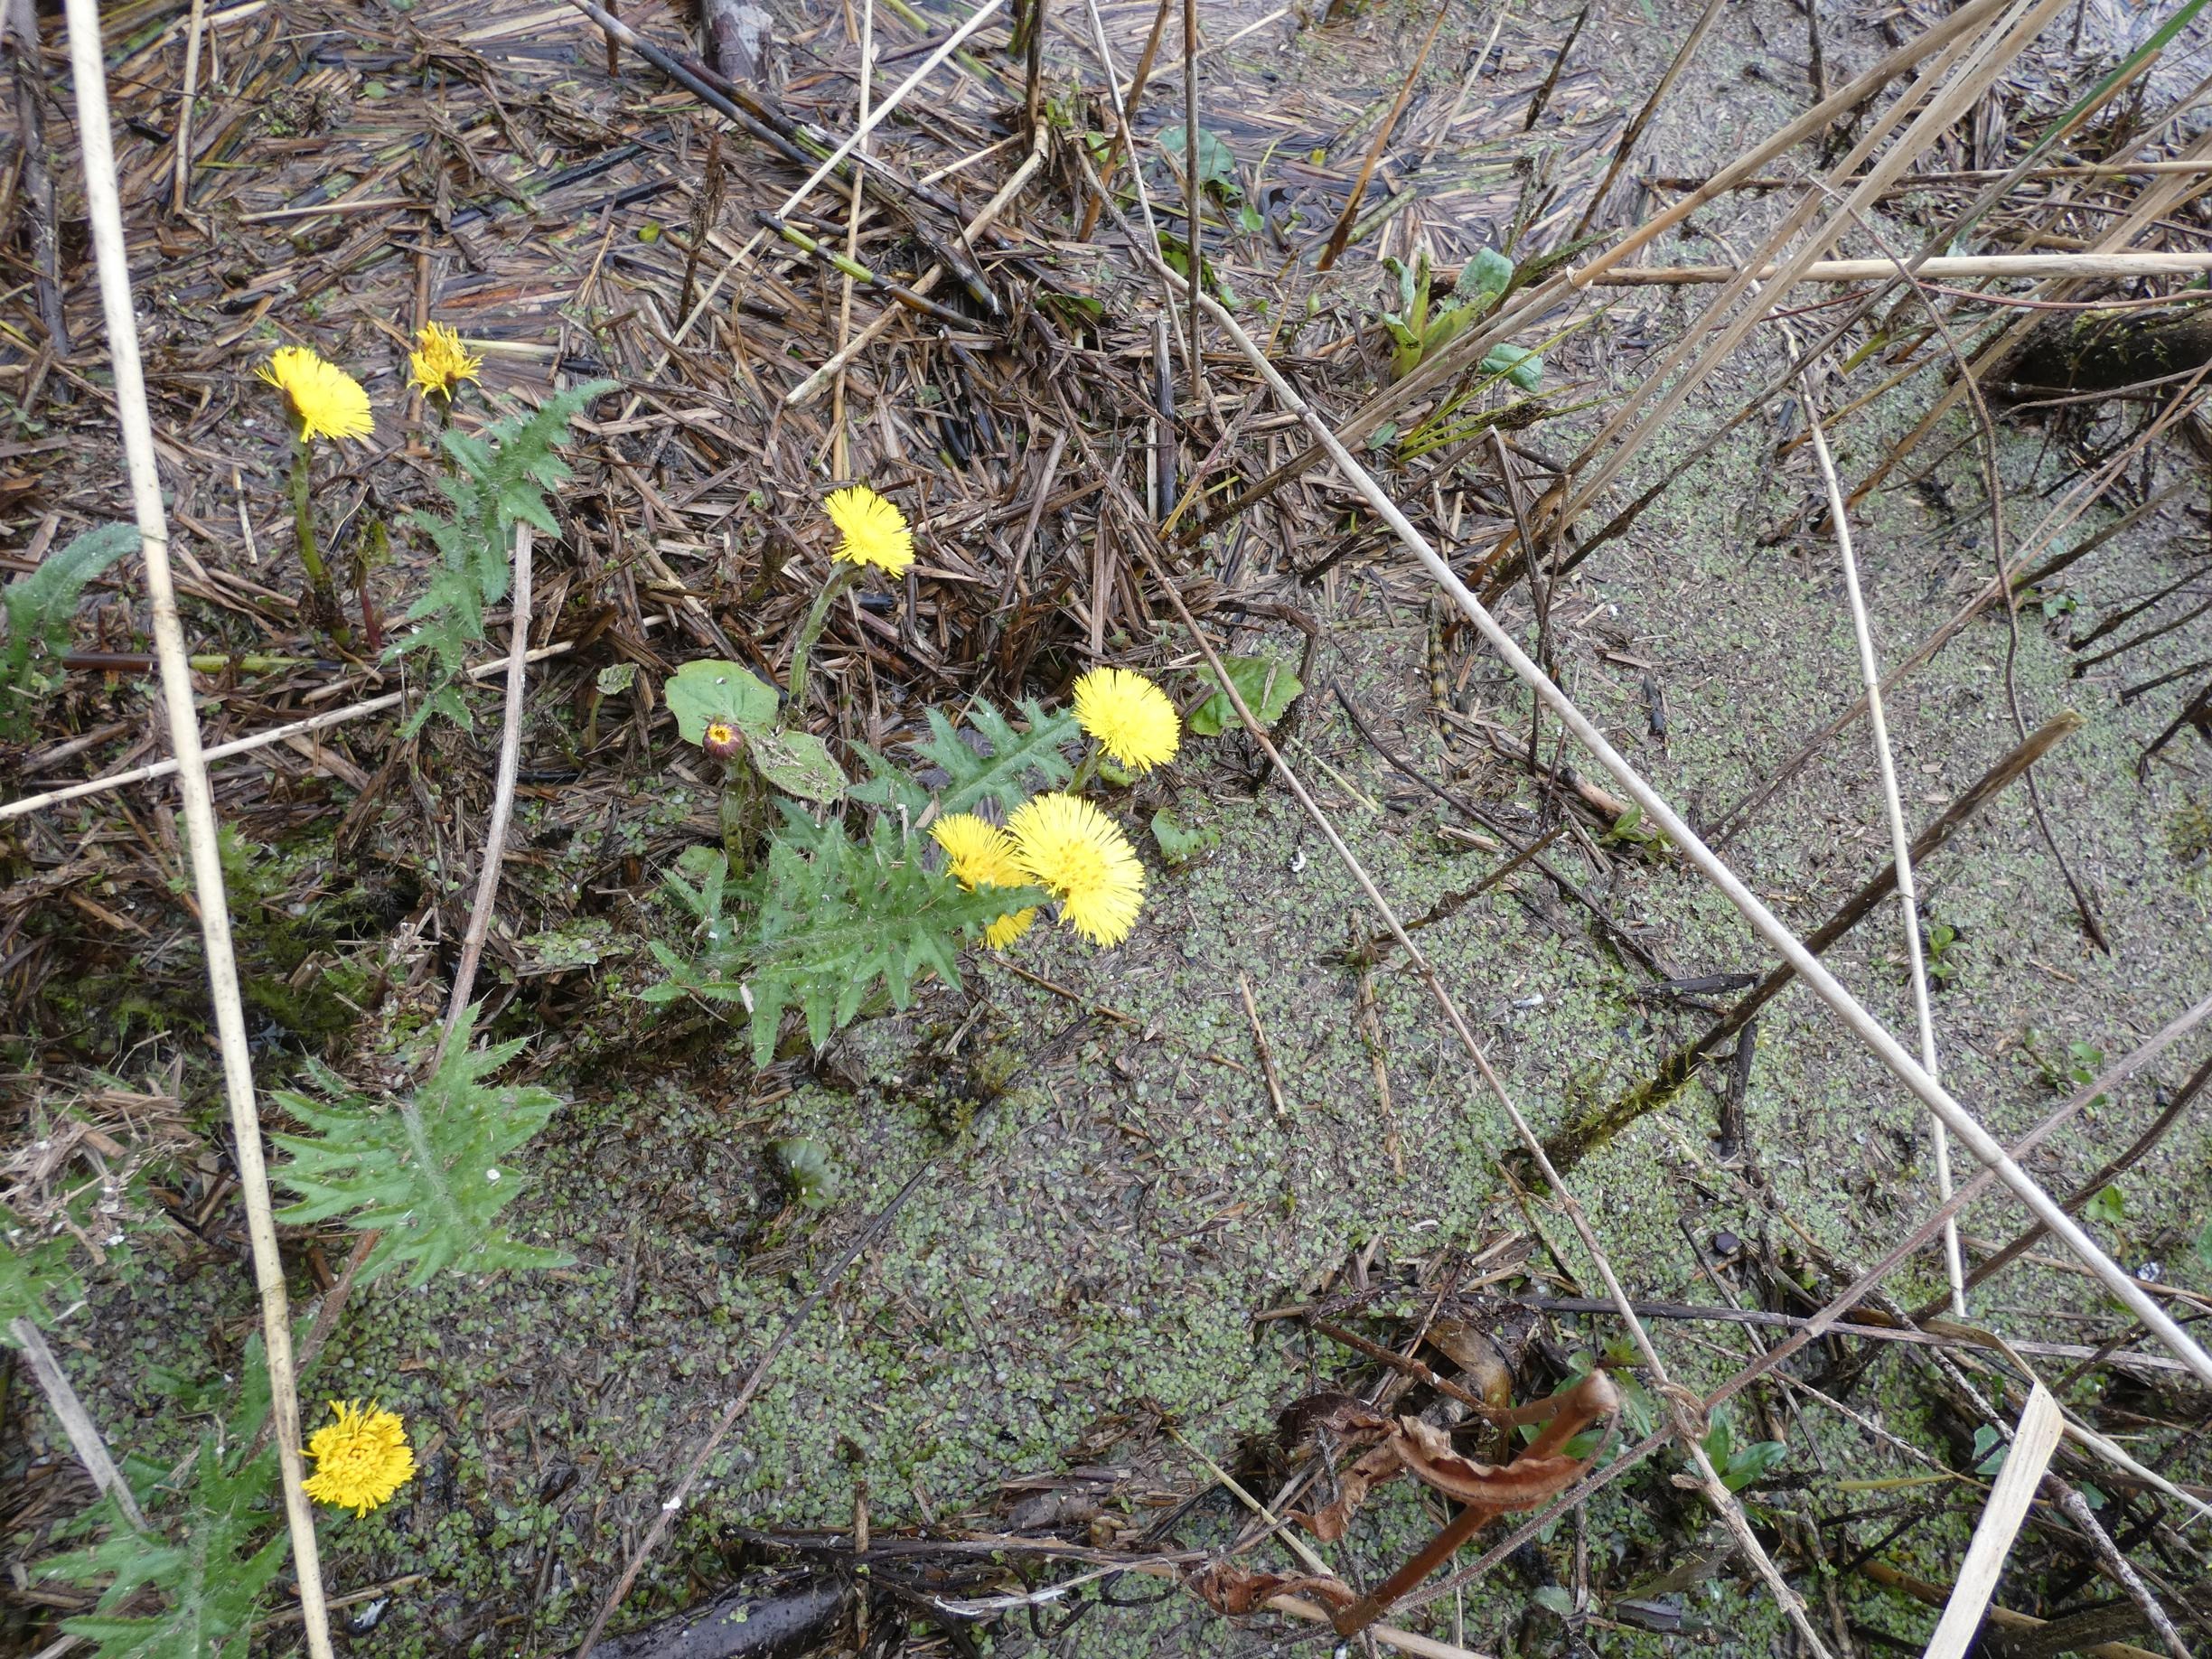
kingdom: Plantae
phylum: Tracheophyta
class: Magnoliopsida
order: Asterales
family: Asteraceae
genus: Tussilago
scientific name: Tussilago farfara
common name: Følfod
